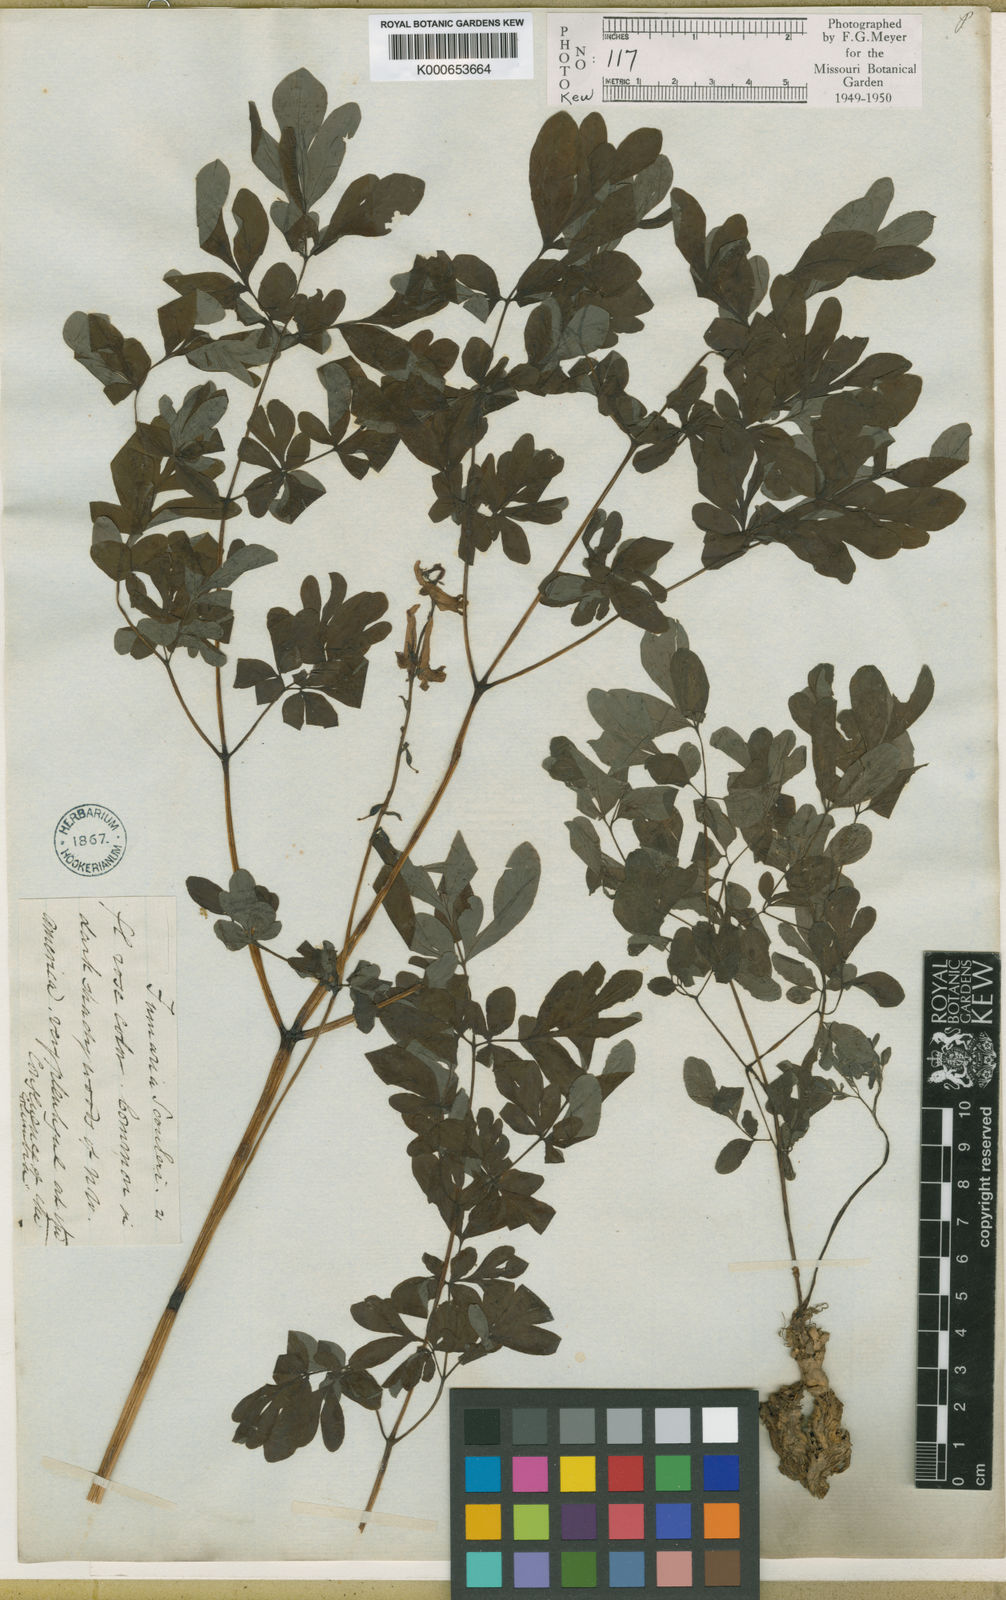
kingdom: Plantae
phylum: Tracheophyta
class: Magnoliopsida
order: Ranunculales
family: Papaveraceae
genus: Corydalis
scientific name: Corydalis scouleri
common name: Scouler's corydalis
